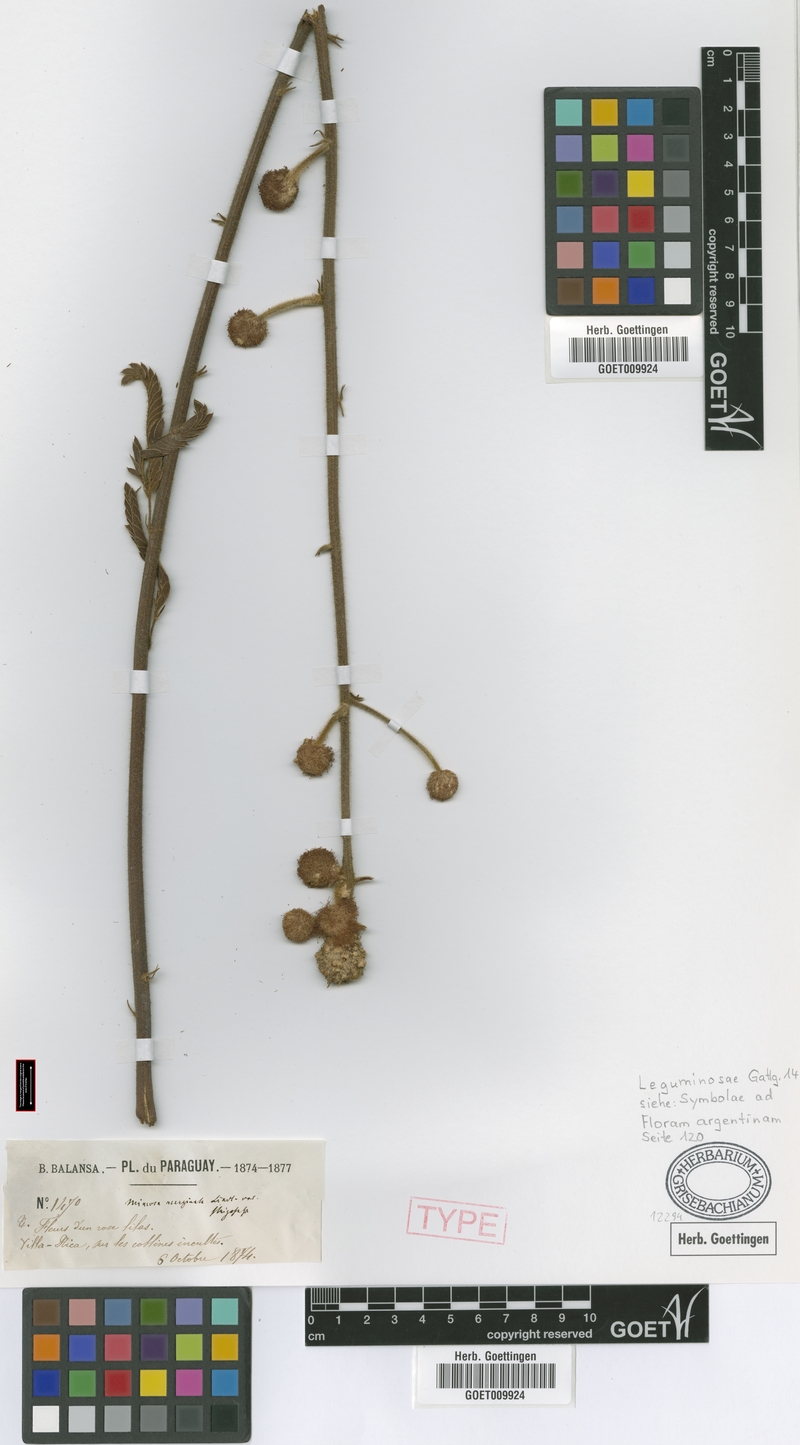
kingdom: Plantae
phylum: Tracheophyta
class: Magnoliopsida
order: Fabales
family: Fabaceae
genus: Mimosa
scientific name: Mimosa dolens
